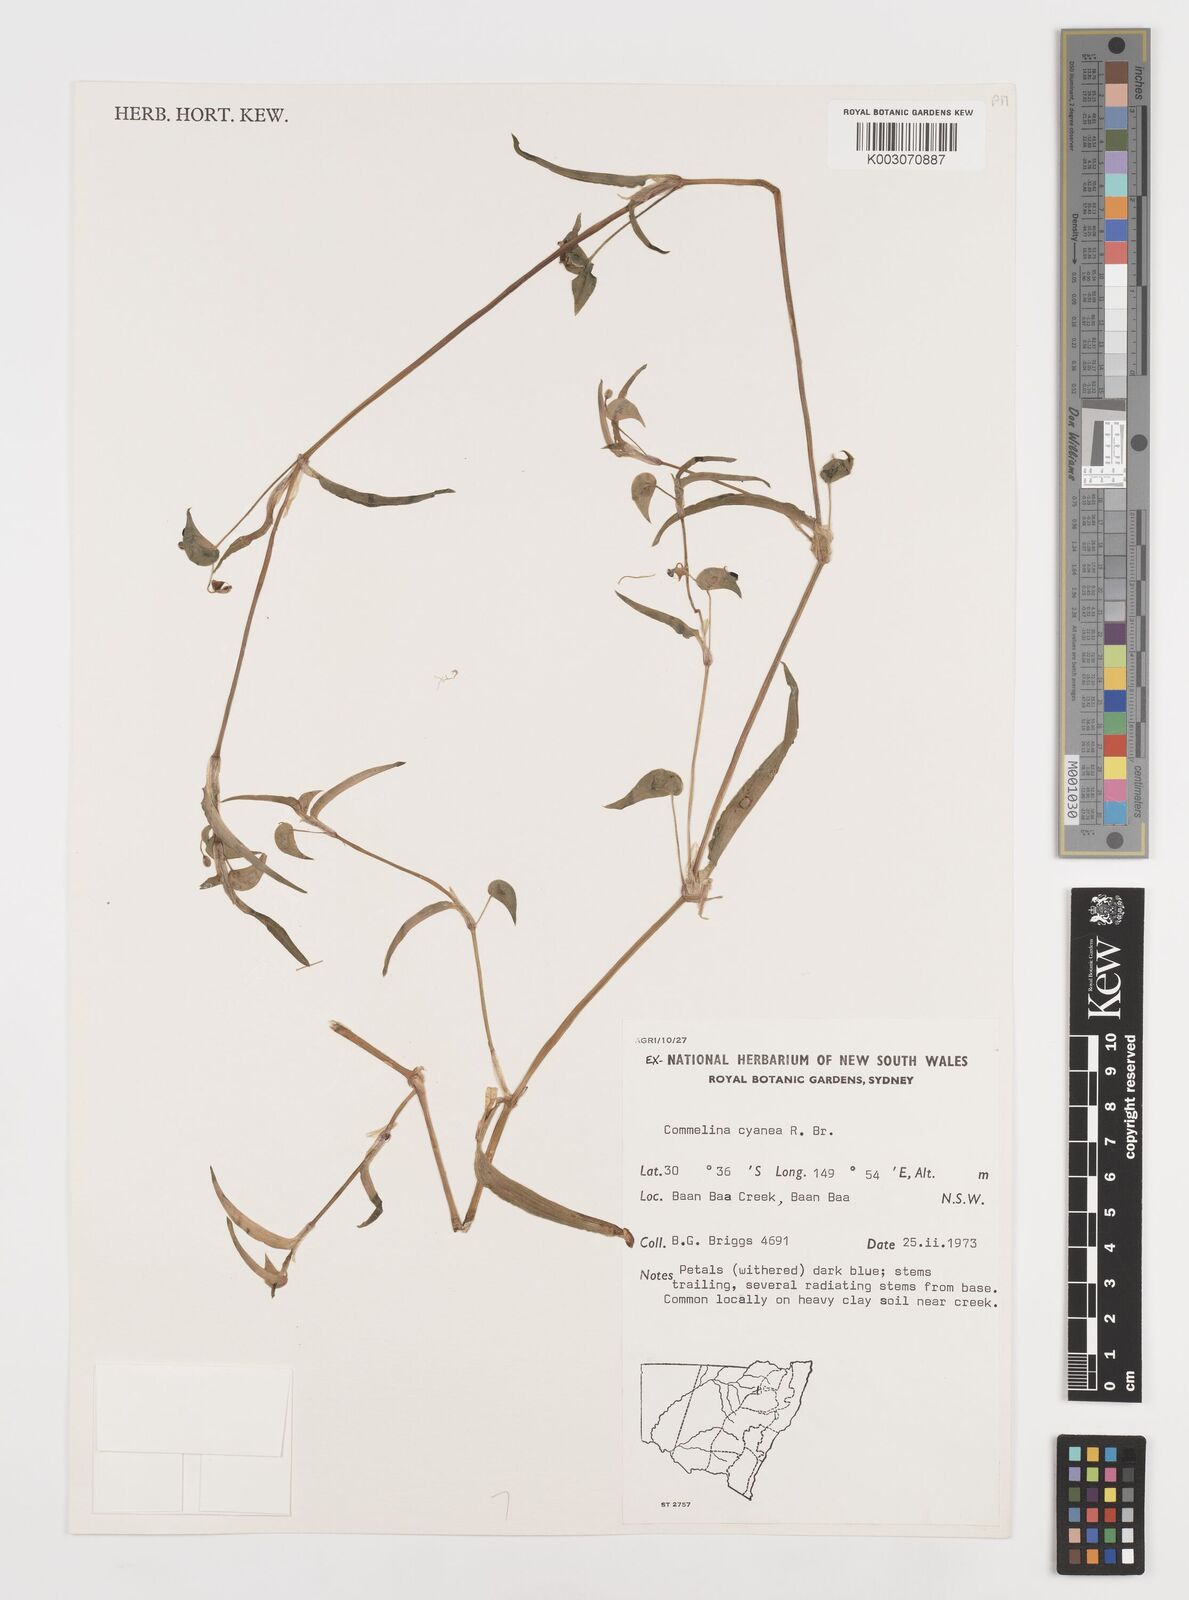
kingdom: Plantae
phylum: Tracheophyta
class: Liliopsida
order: Commelinales
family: Commelinaceae
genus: Commelina
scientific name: Commelina cyanea
